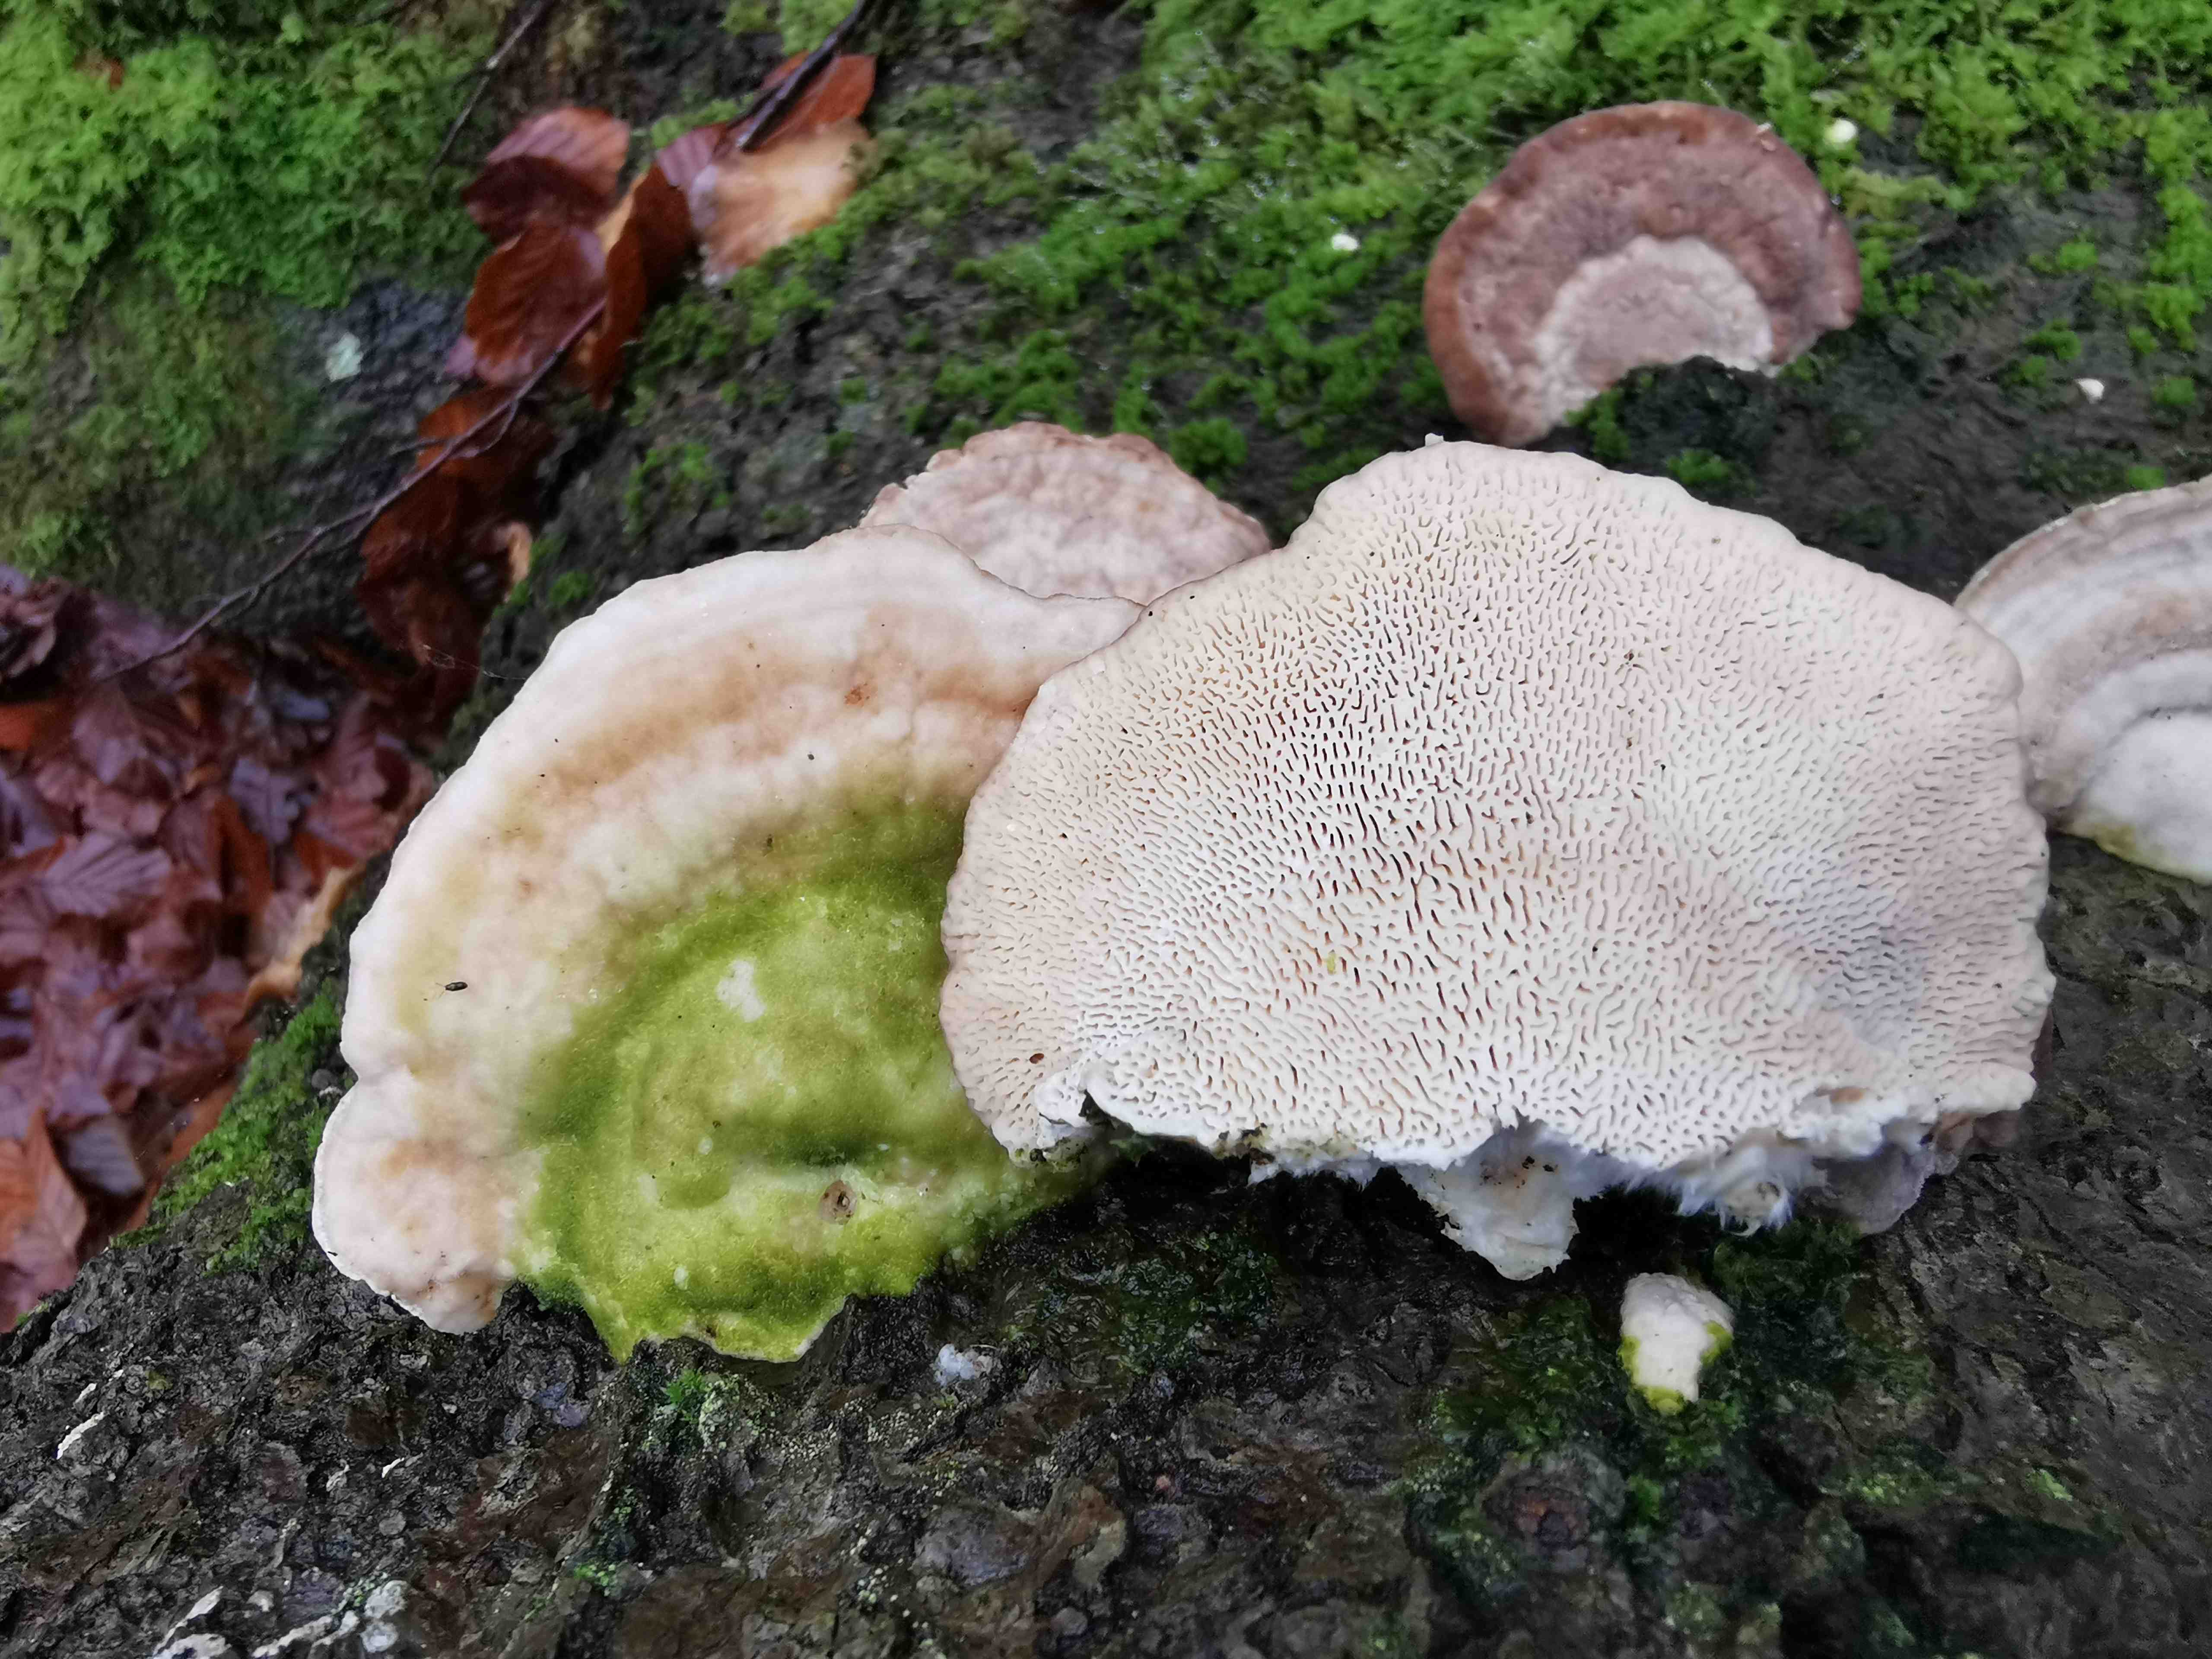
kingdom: Fungi
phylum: Basidiomycota
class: Agaricomycetes
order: Polyporales
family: Polyporaceae
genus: Trametes
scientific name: Trametes gibbosa
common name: puklet læderporesvamp
